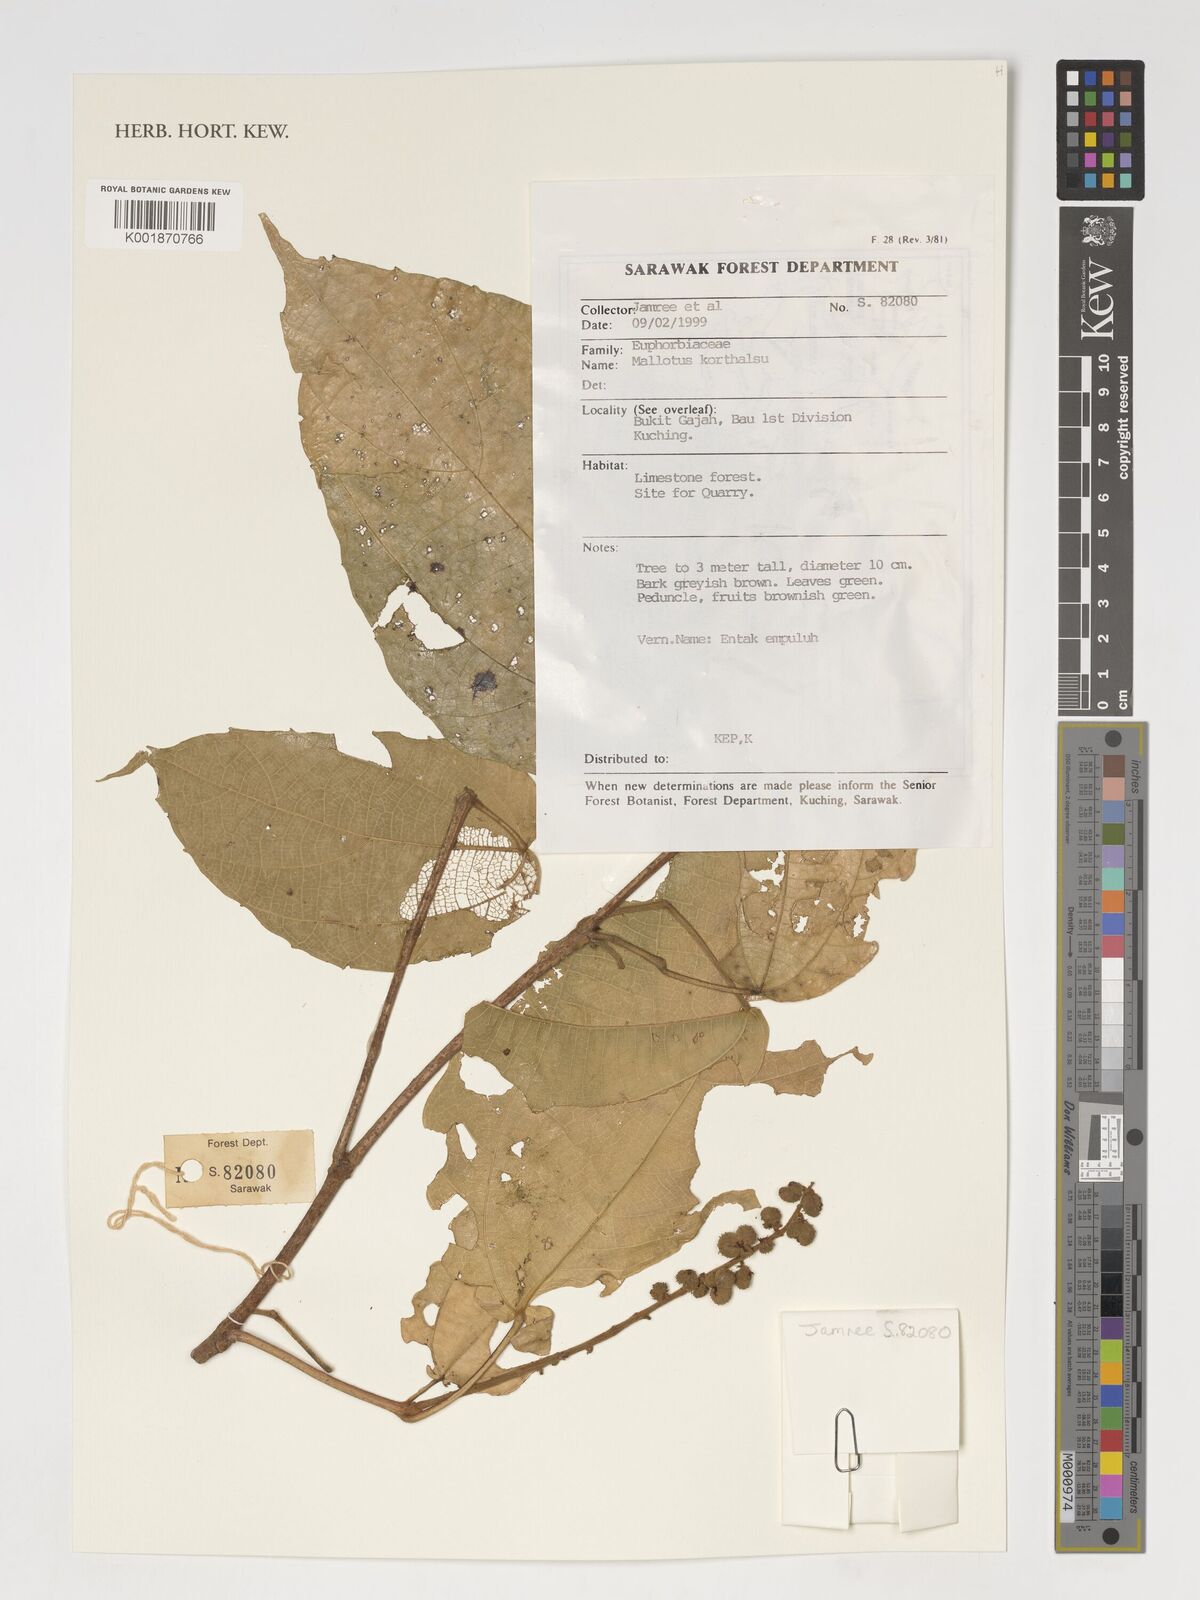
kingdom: Plantae
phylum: Tracheophyta
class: Magnoliopsida
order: Malpighiales
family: Euphorbiaceae
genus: Mallotus
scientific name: Mallotus
